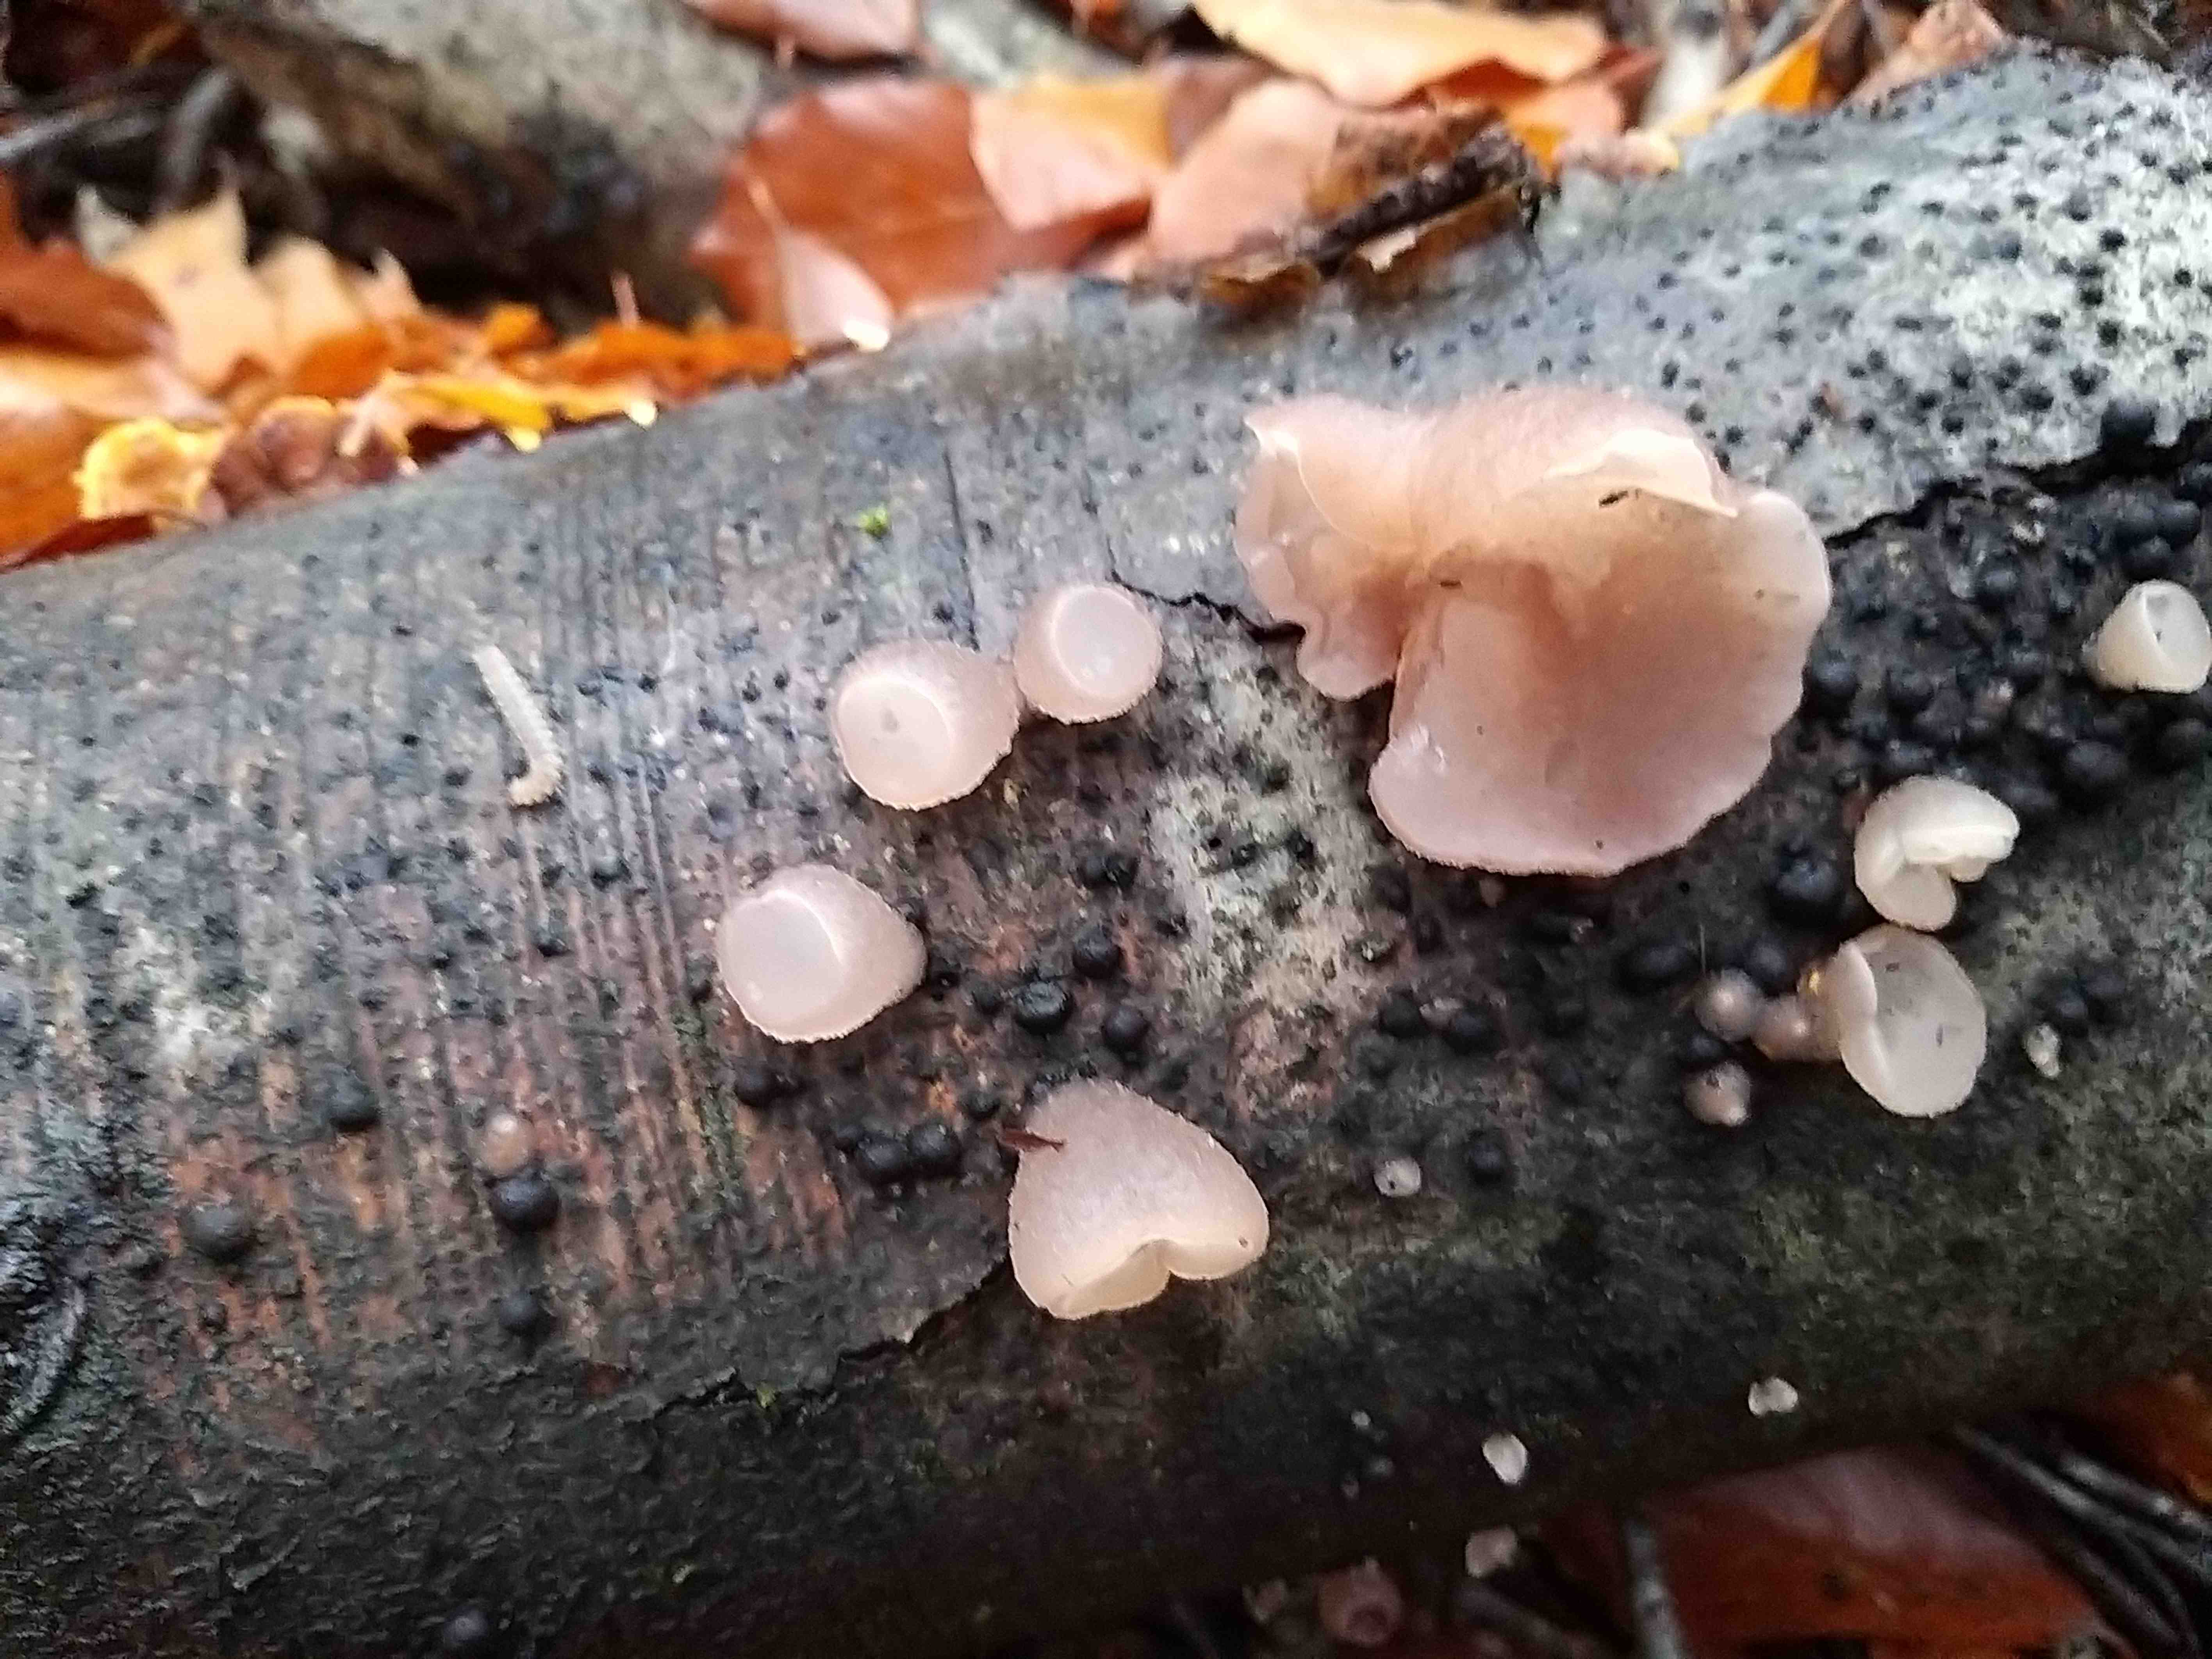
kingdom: Fungi
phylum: Ascomycota
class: Leotiomycetes
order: Helotiales
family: Gelatinodiscaceae
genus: Neobulgaria
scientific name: Neobulgaria pura
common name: bleg bævreskive
